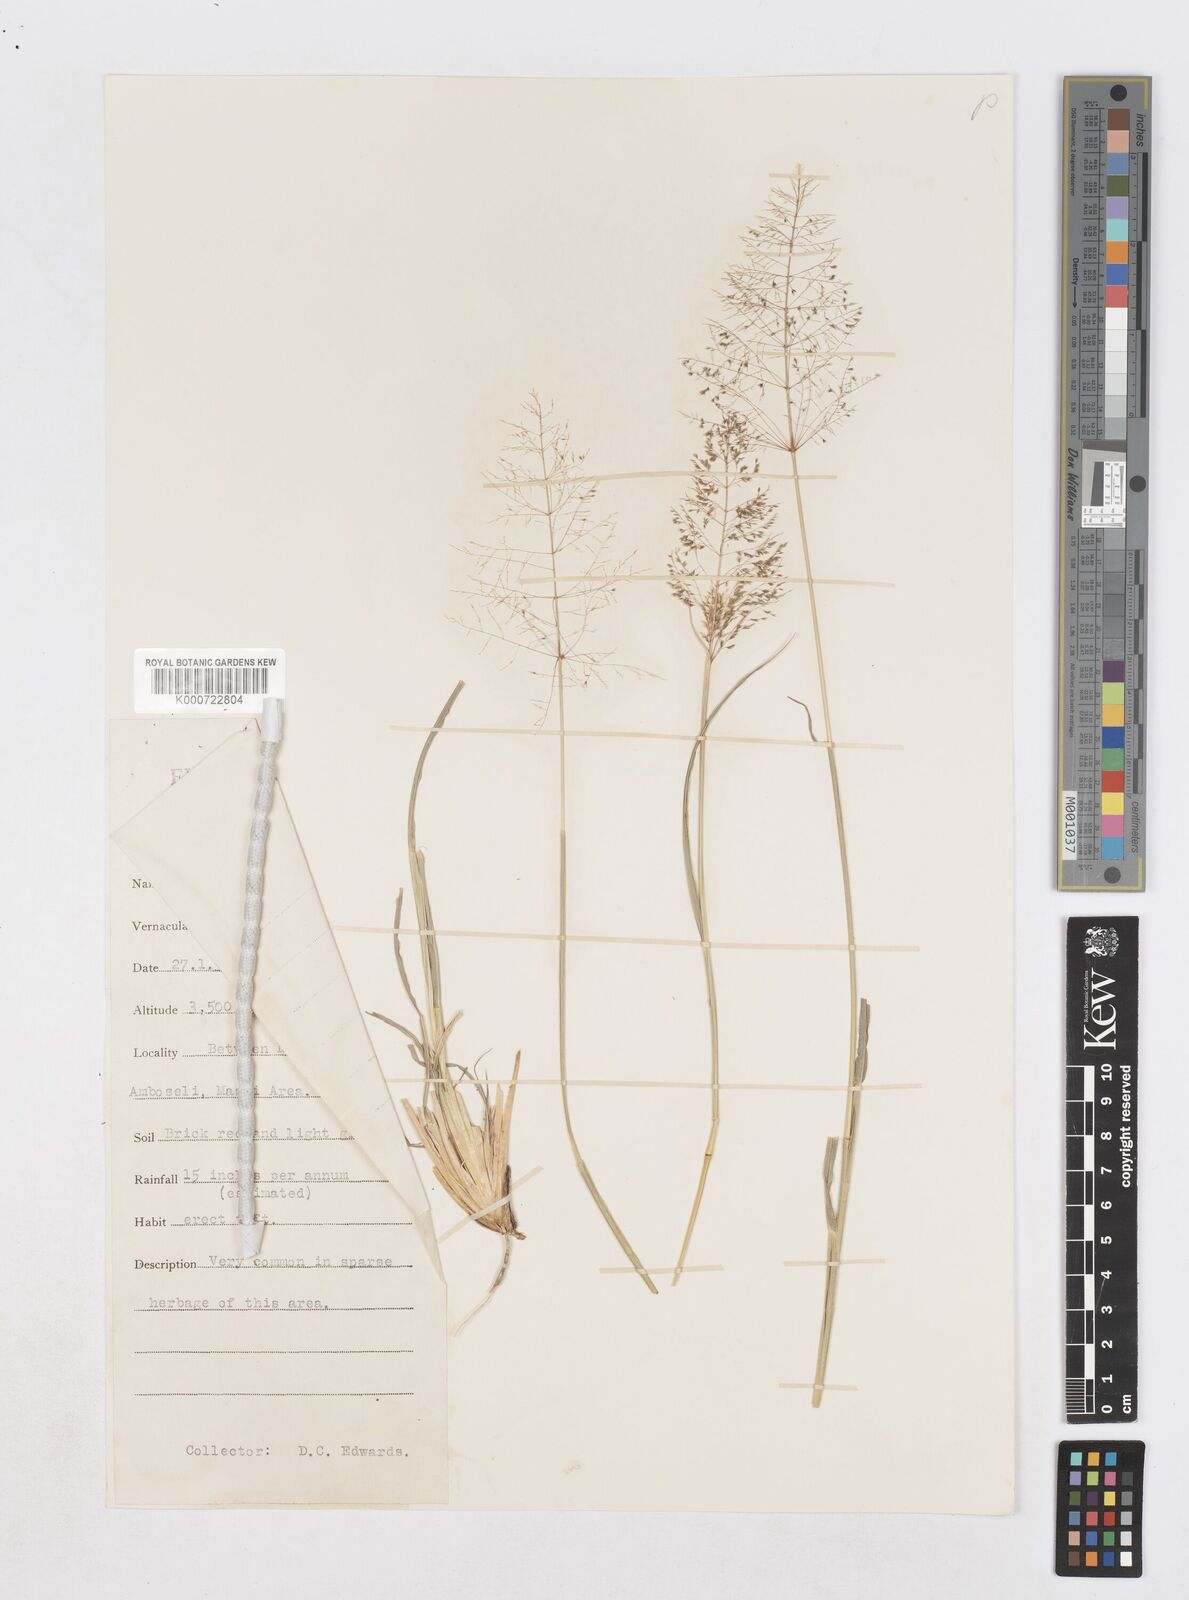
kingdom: Plantae
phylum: Tracheophyta
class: Liliopsida
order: Poales
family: Poaceae
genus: Sporobolus
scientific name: Sporobolus ioclados
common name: Pan dropseed
